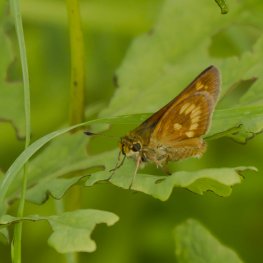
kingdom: Animalia
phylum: Arthropoda
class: Insecta
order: Lepidoptera
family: Hesperiidae
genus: Polites
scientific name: Polites
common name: Long Dash Skipper
